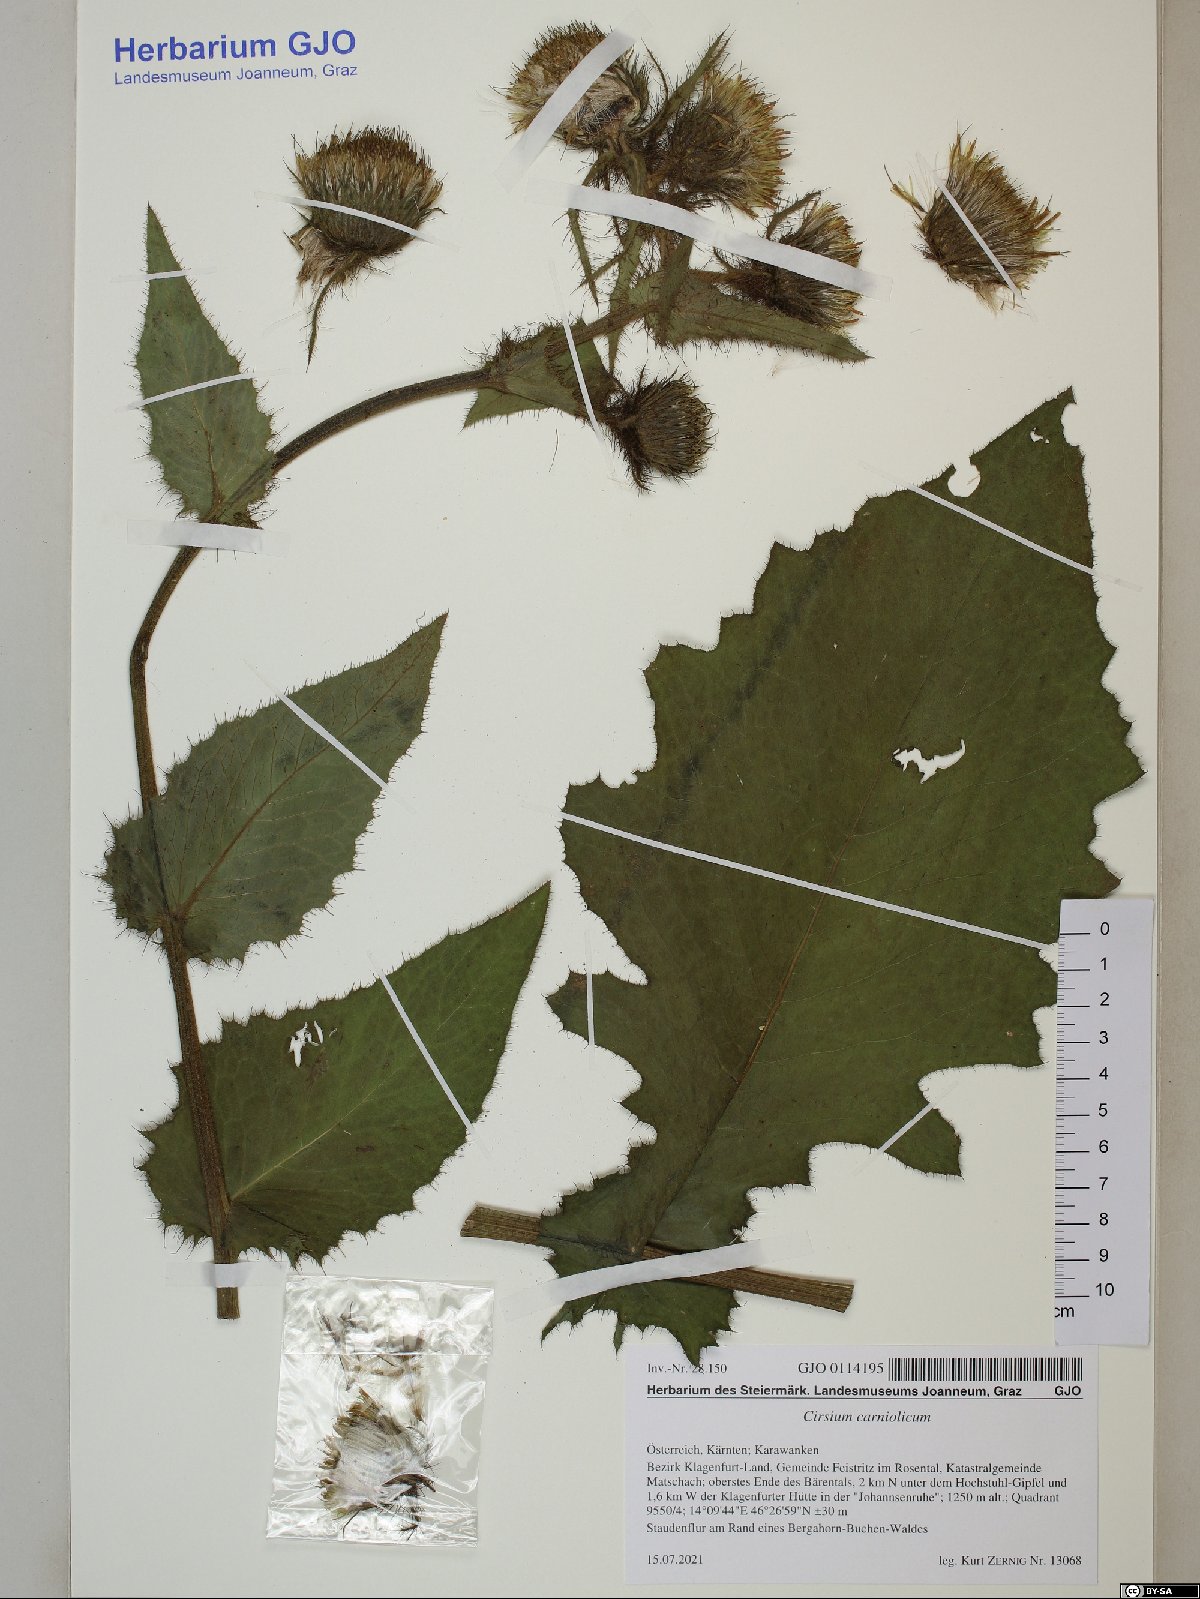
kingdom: Plantae
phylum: Tracheophyta
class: Magnoliopsida
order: Asterales
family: Asteraceae
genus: Cirsium
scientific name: Cirsium carniolicum
